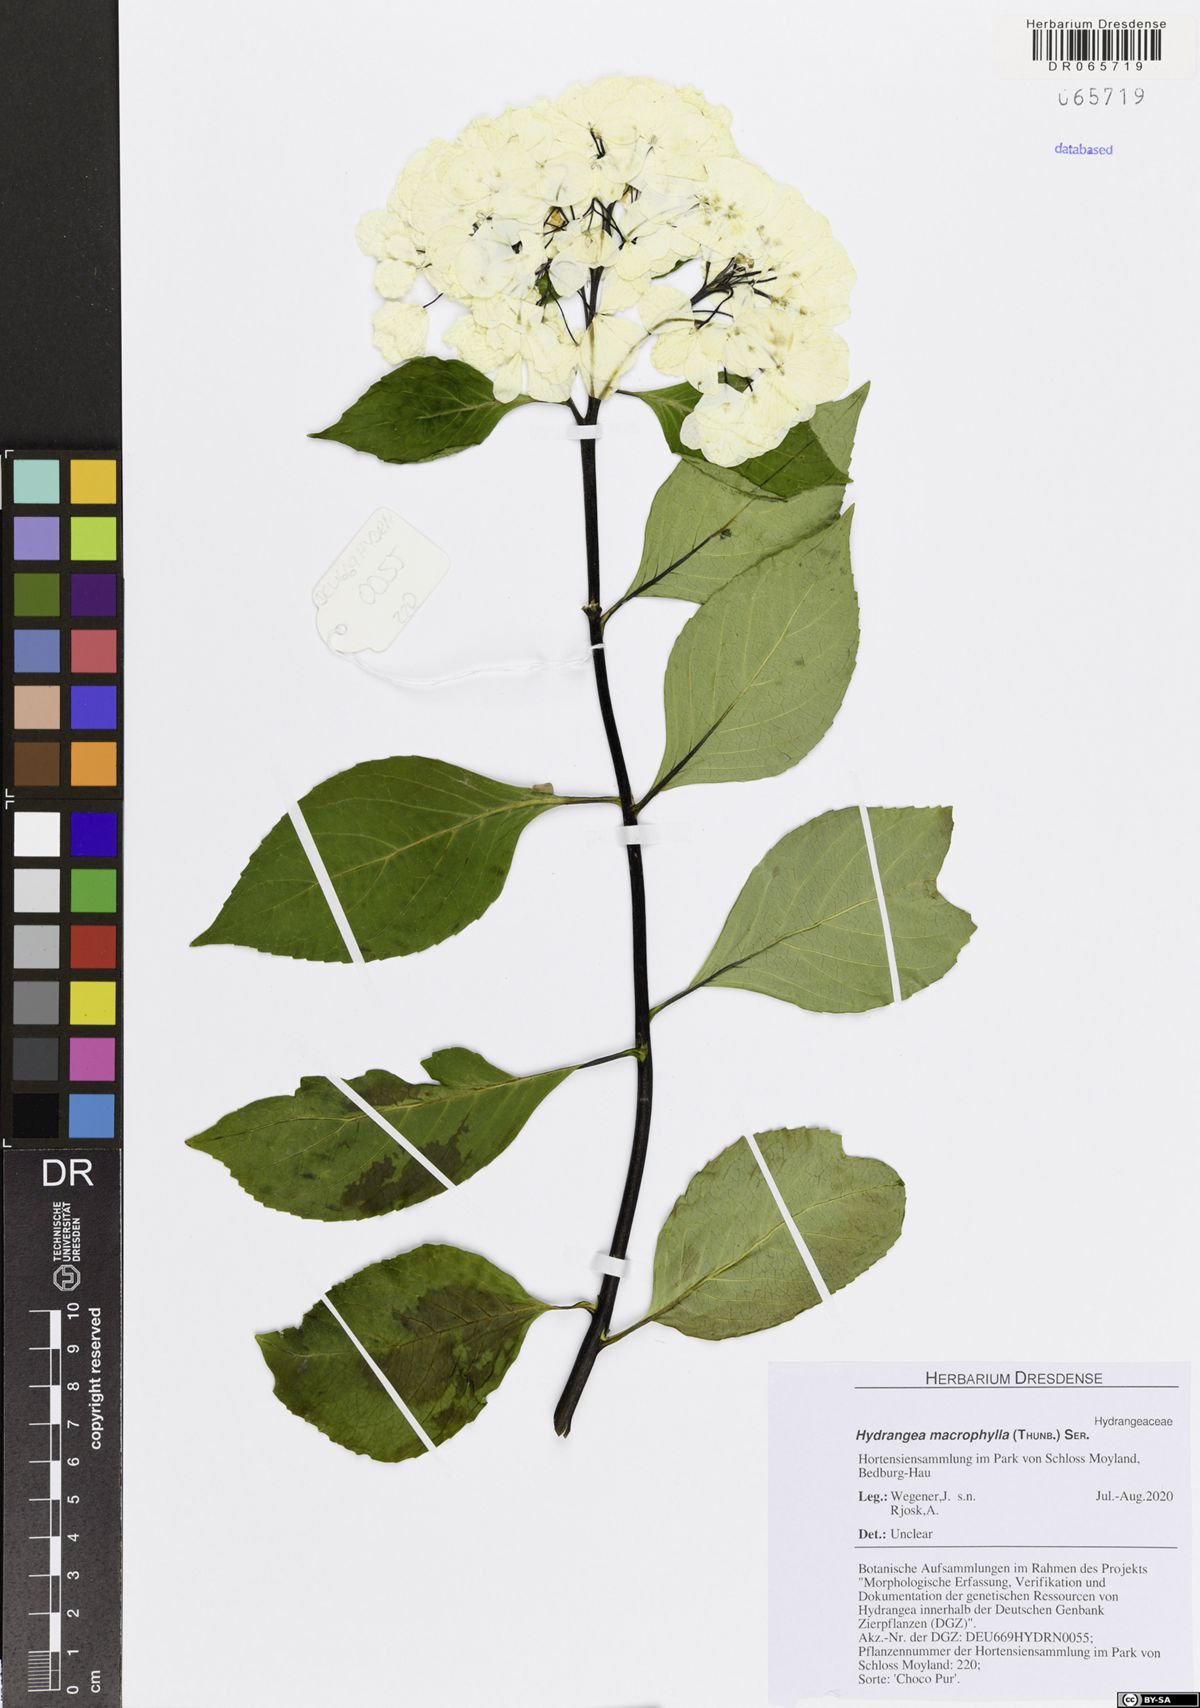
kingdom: Plantae
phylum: Tracheophyta
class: Magnoliopsida
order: Cornales
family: Hydrangeaceae
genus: Hydrangea
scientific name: Hydrangea macrophylla
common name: Hydrangea
